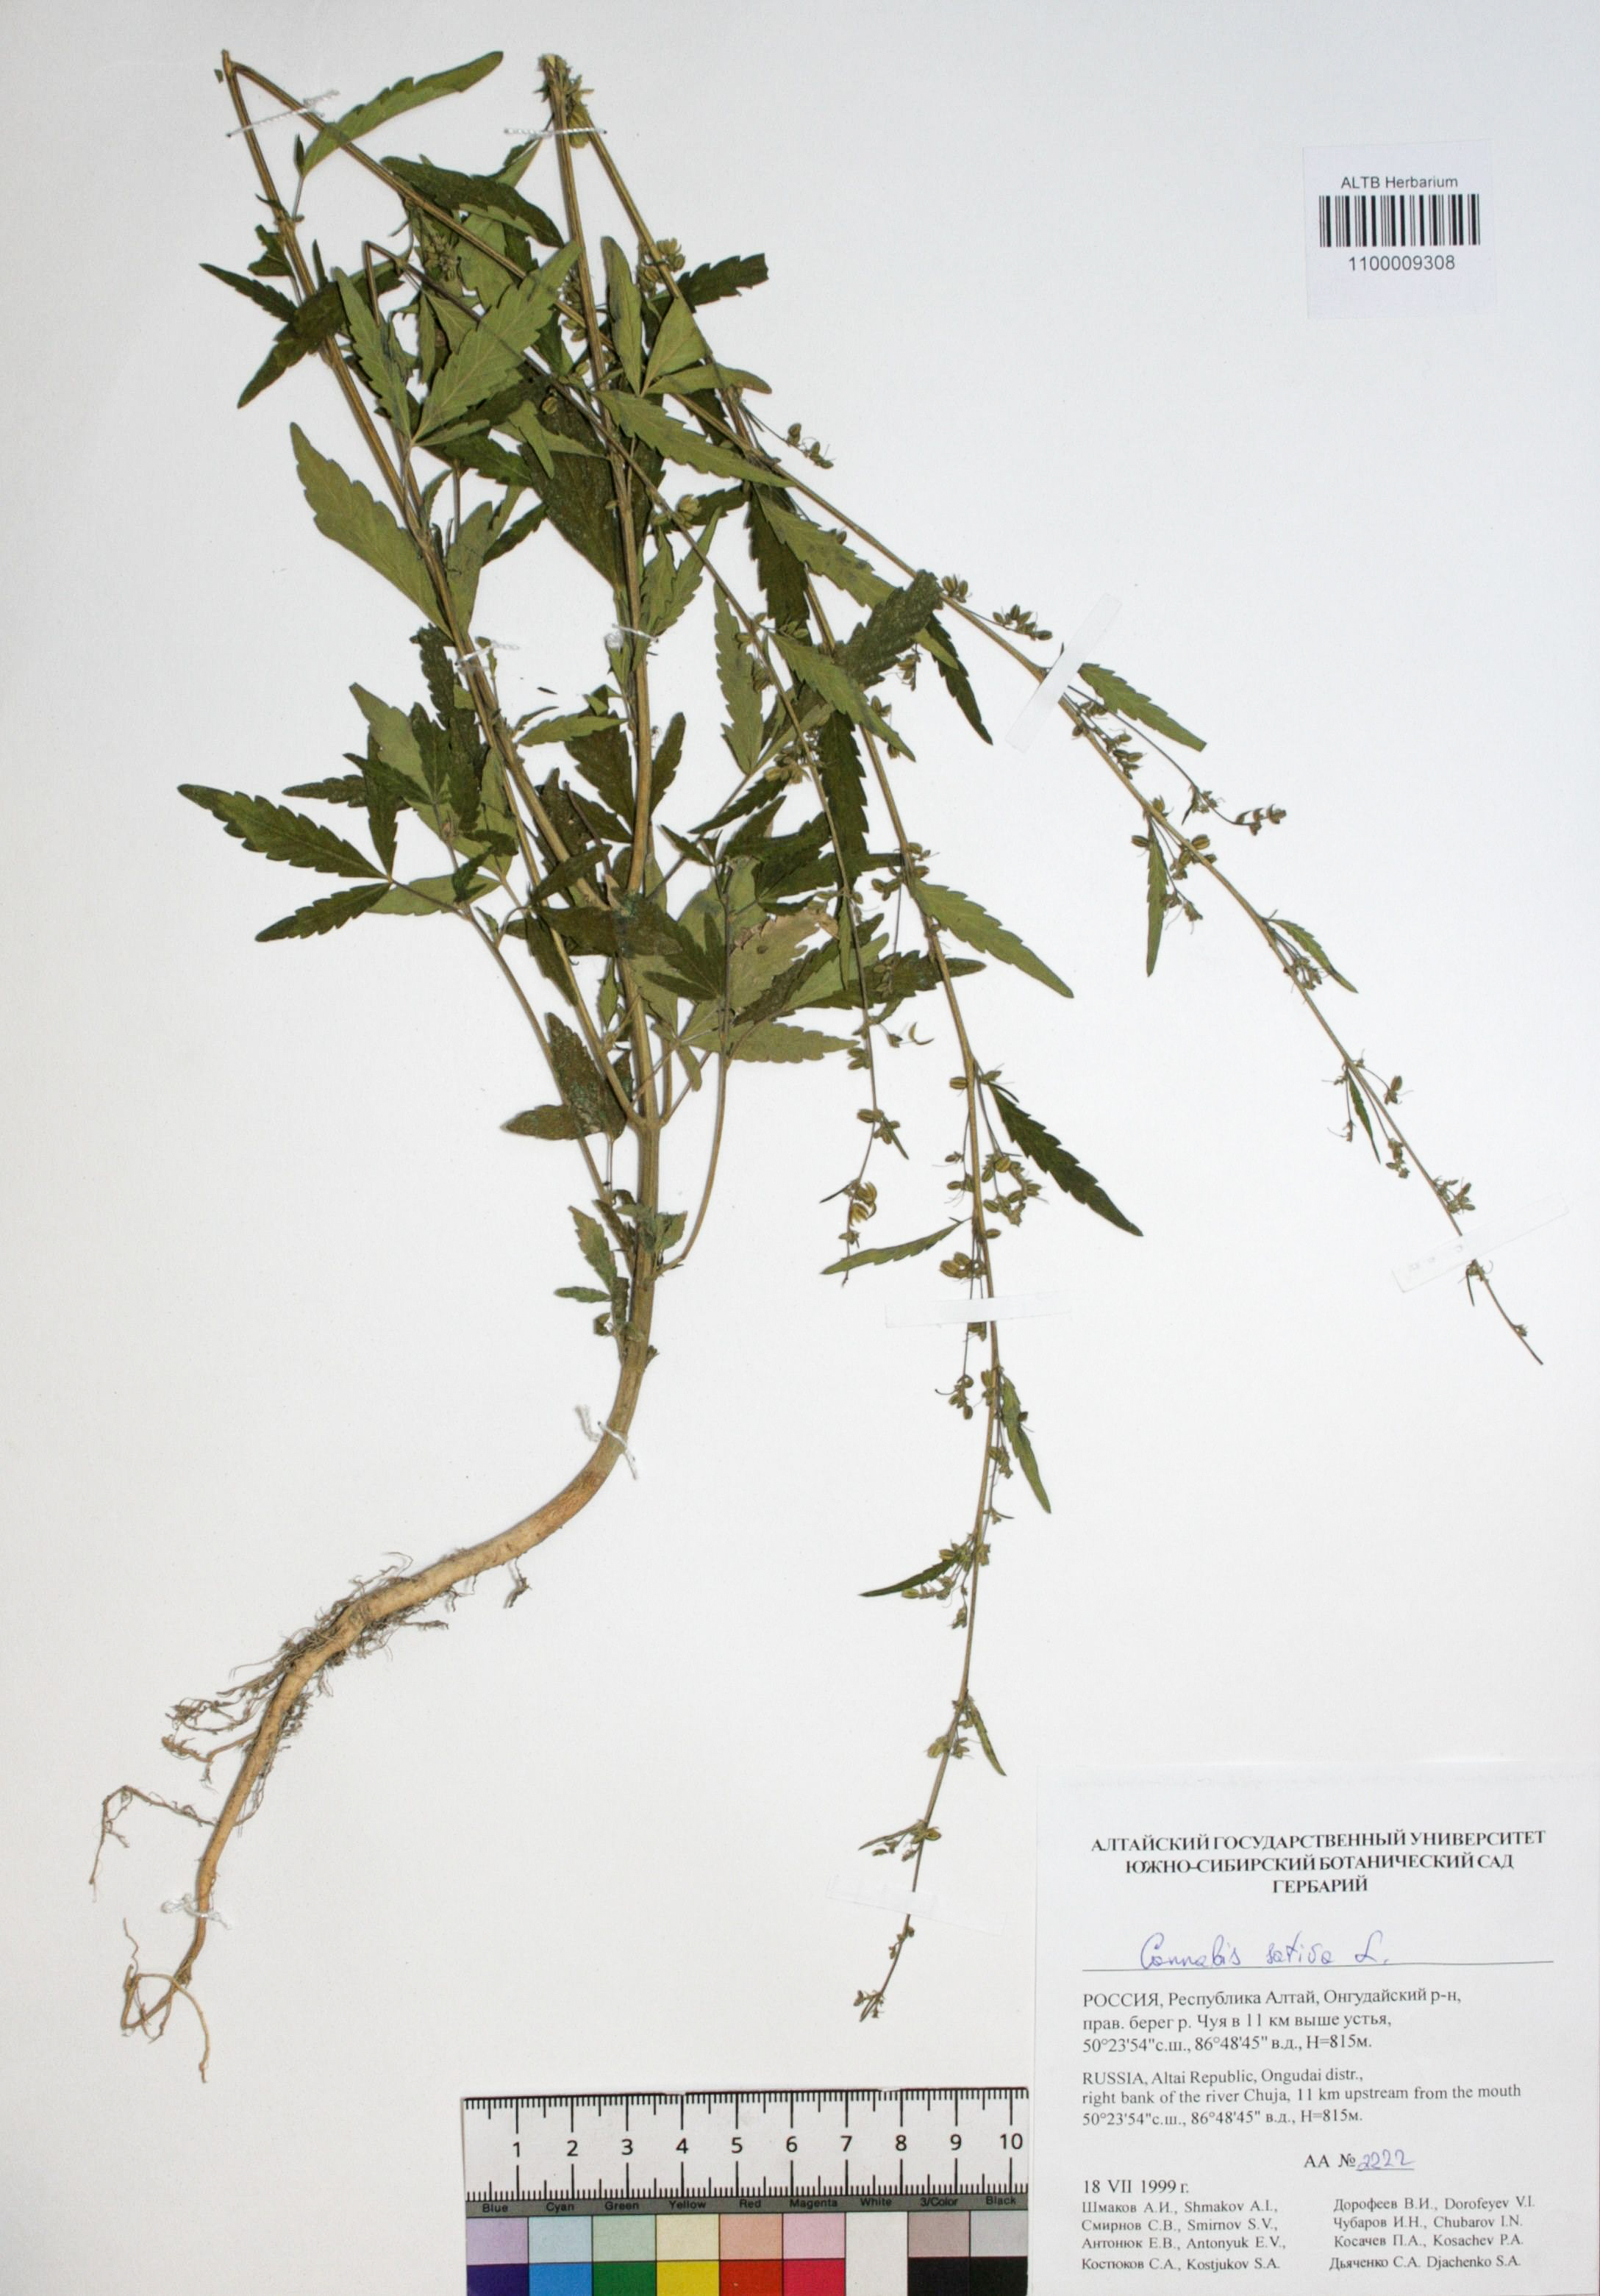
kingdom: Plantae
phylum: Tracheophyta
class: Magnoliopsida
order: Rosales
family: Cannabaceae
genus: Cannabis
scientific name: Cannabis sativa
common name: Hemp
